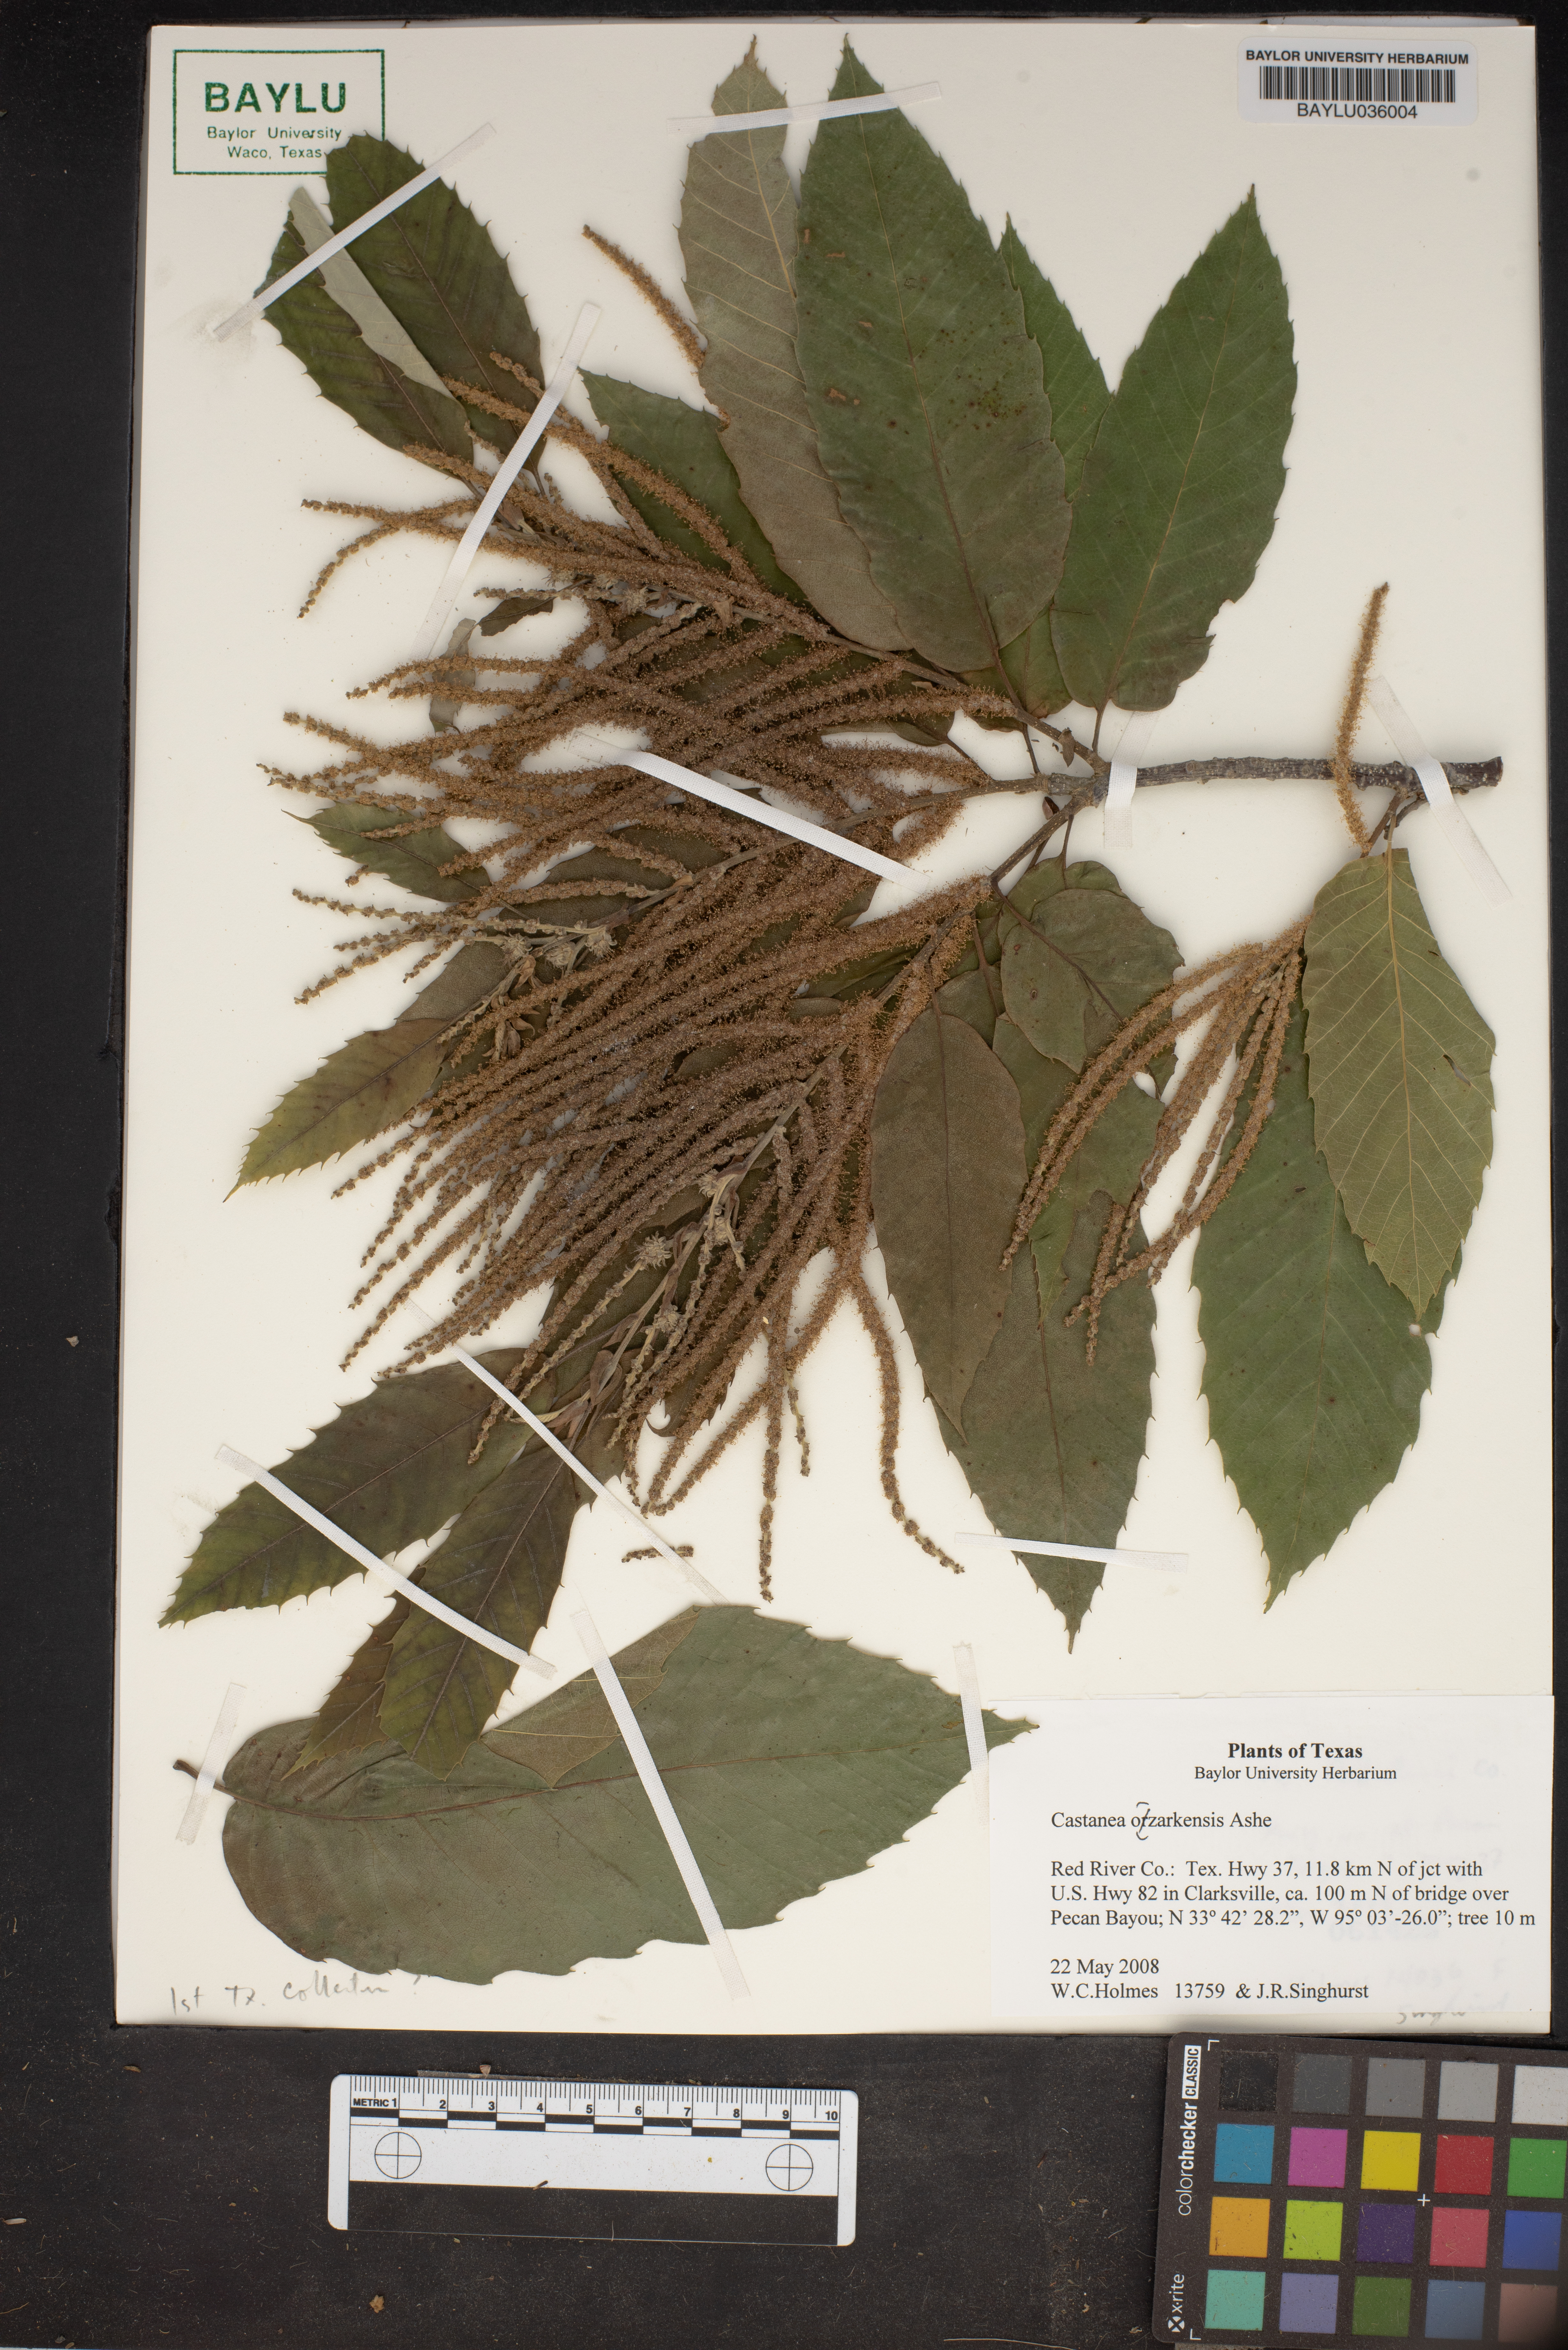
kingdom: Plantae
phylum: Tracheophyta
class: Magnoliopsida
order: Fagales
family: Fagaceae
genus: Castanea
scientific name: Castanea ozarkensis
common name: Ozark chinkapin
